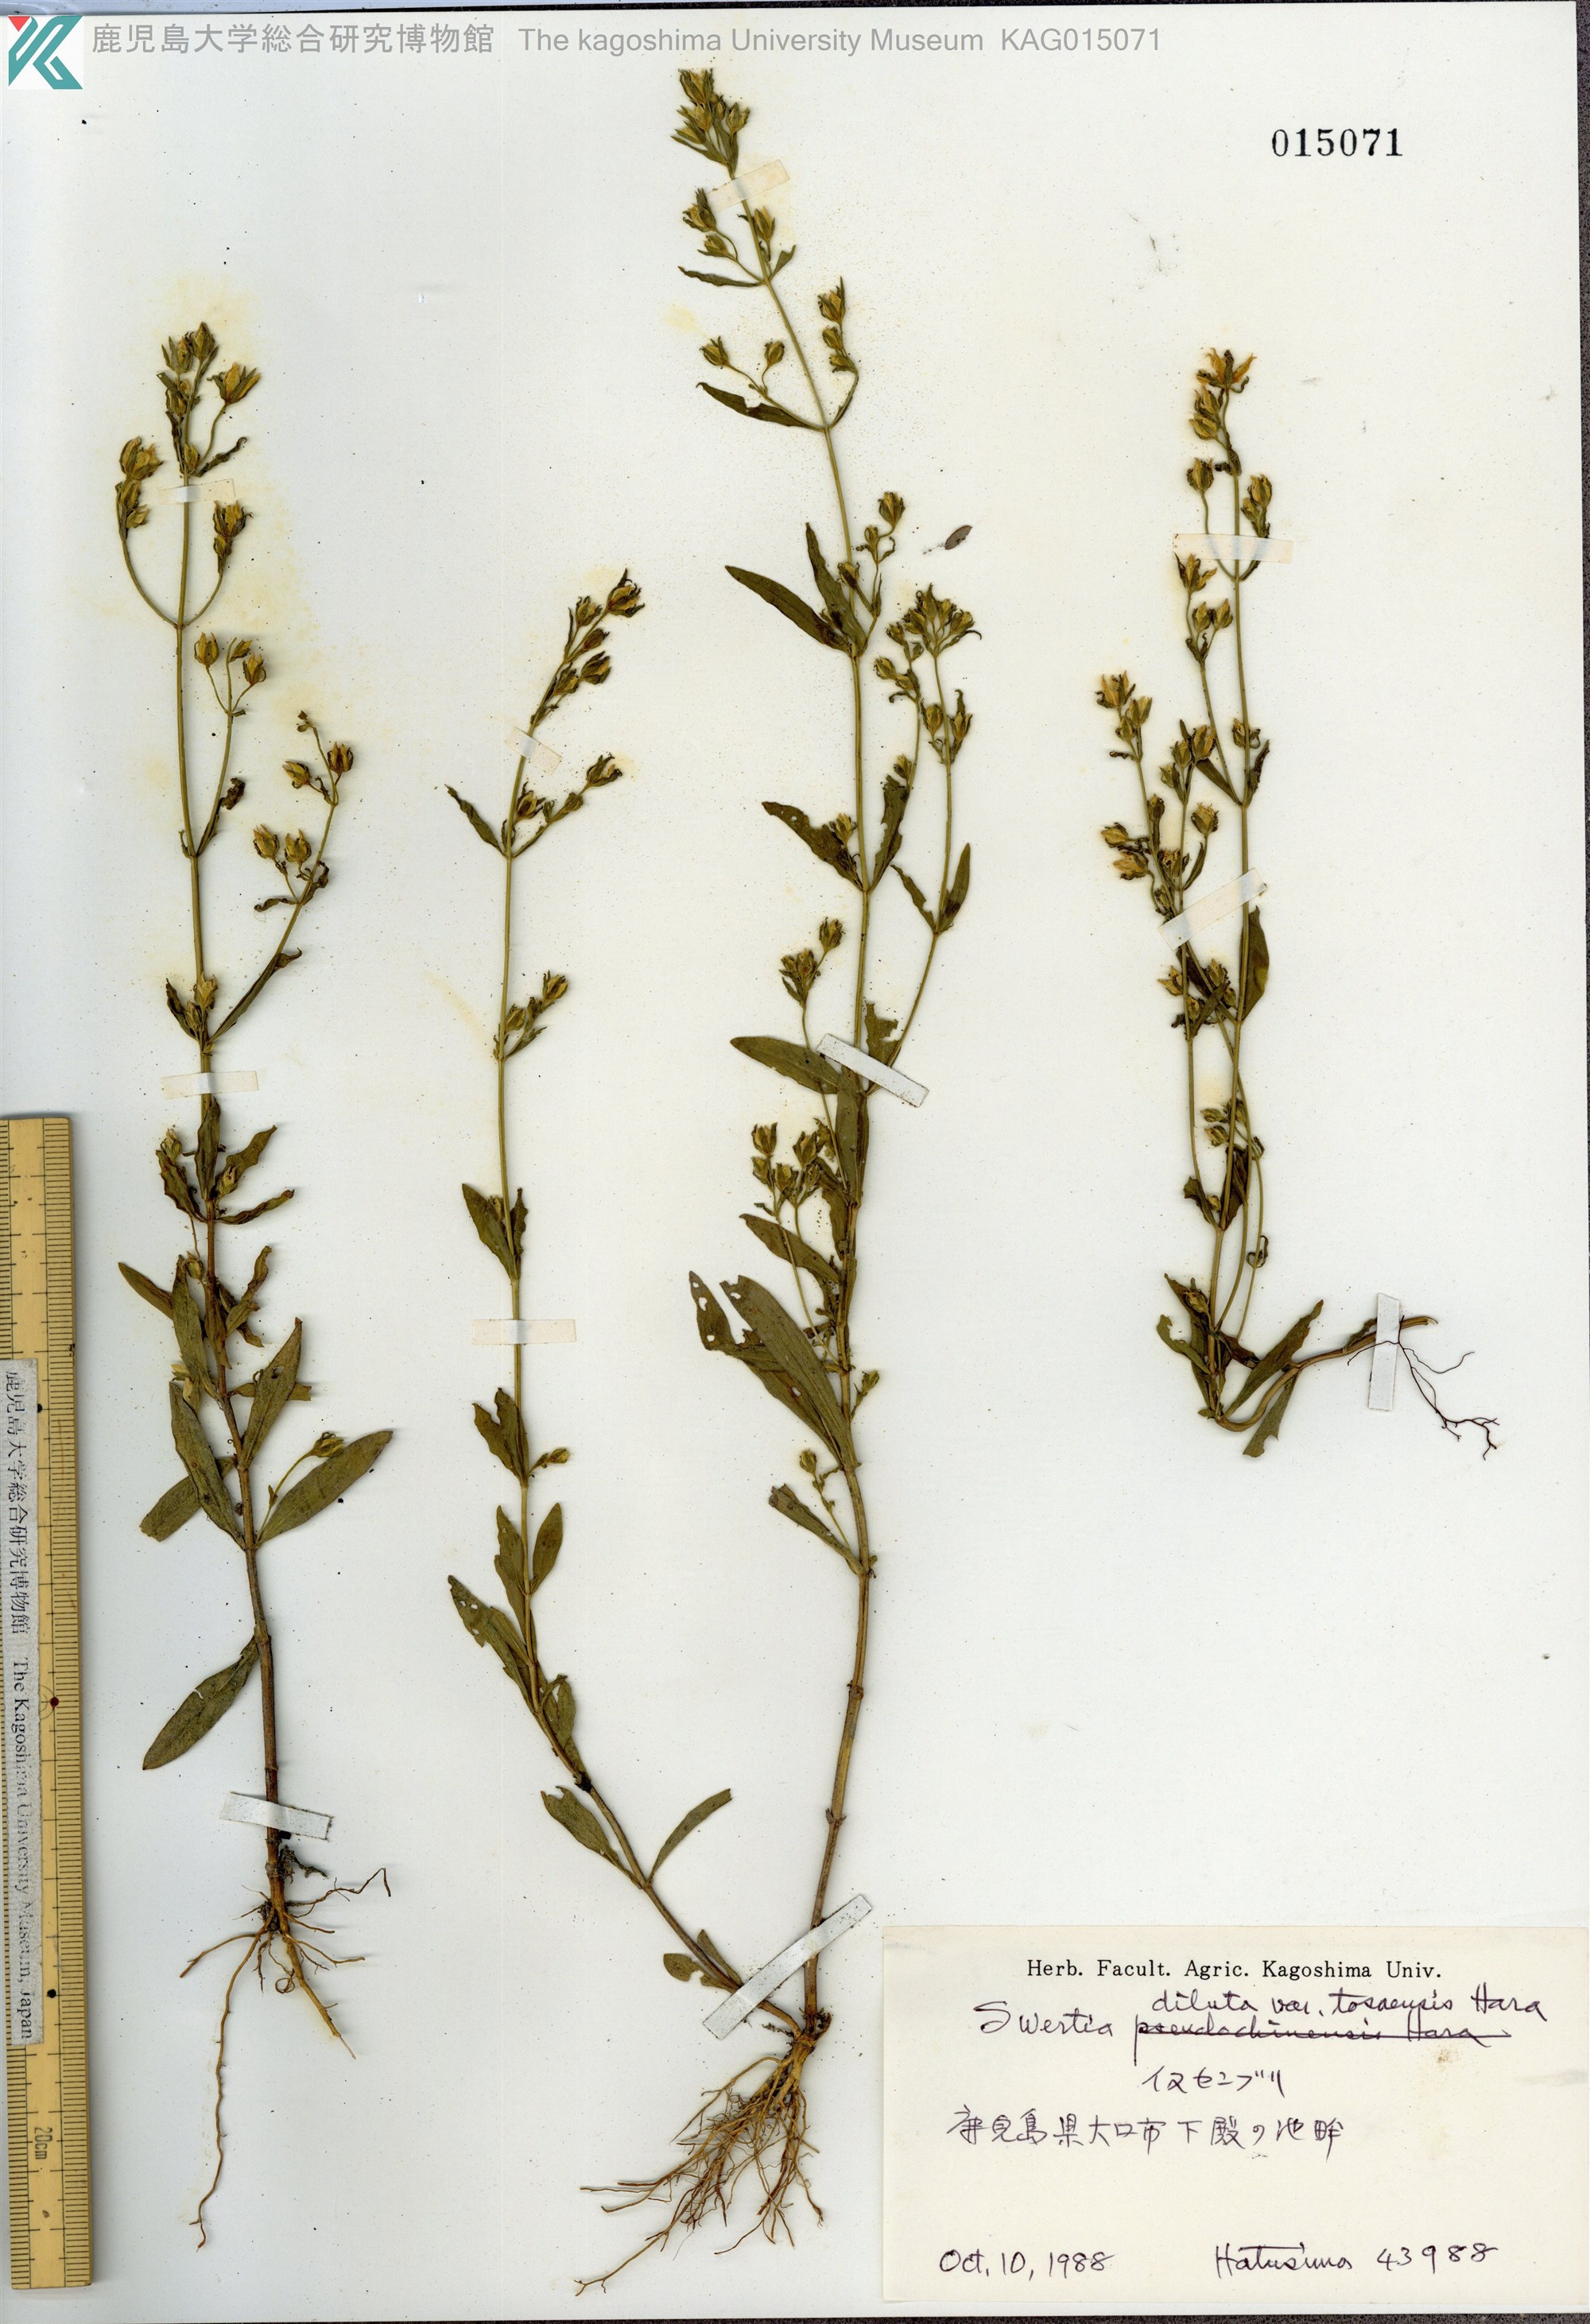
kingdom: Plantae
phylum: Tracheophyta
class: Magnoliopsida
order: Gentianales
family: Gentianaceae
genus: Swertia
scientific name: Swertia diluta
